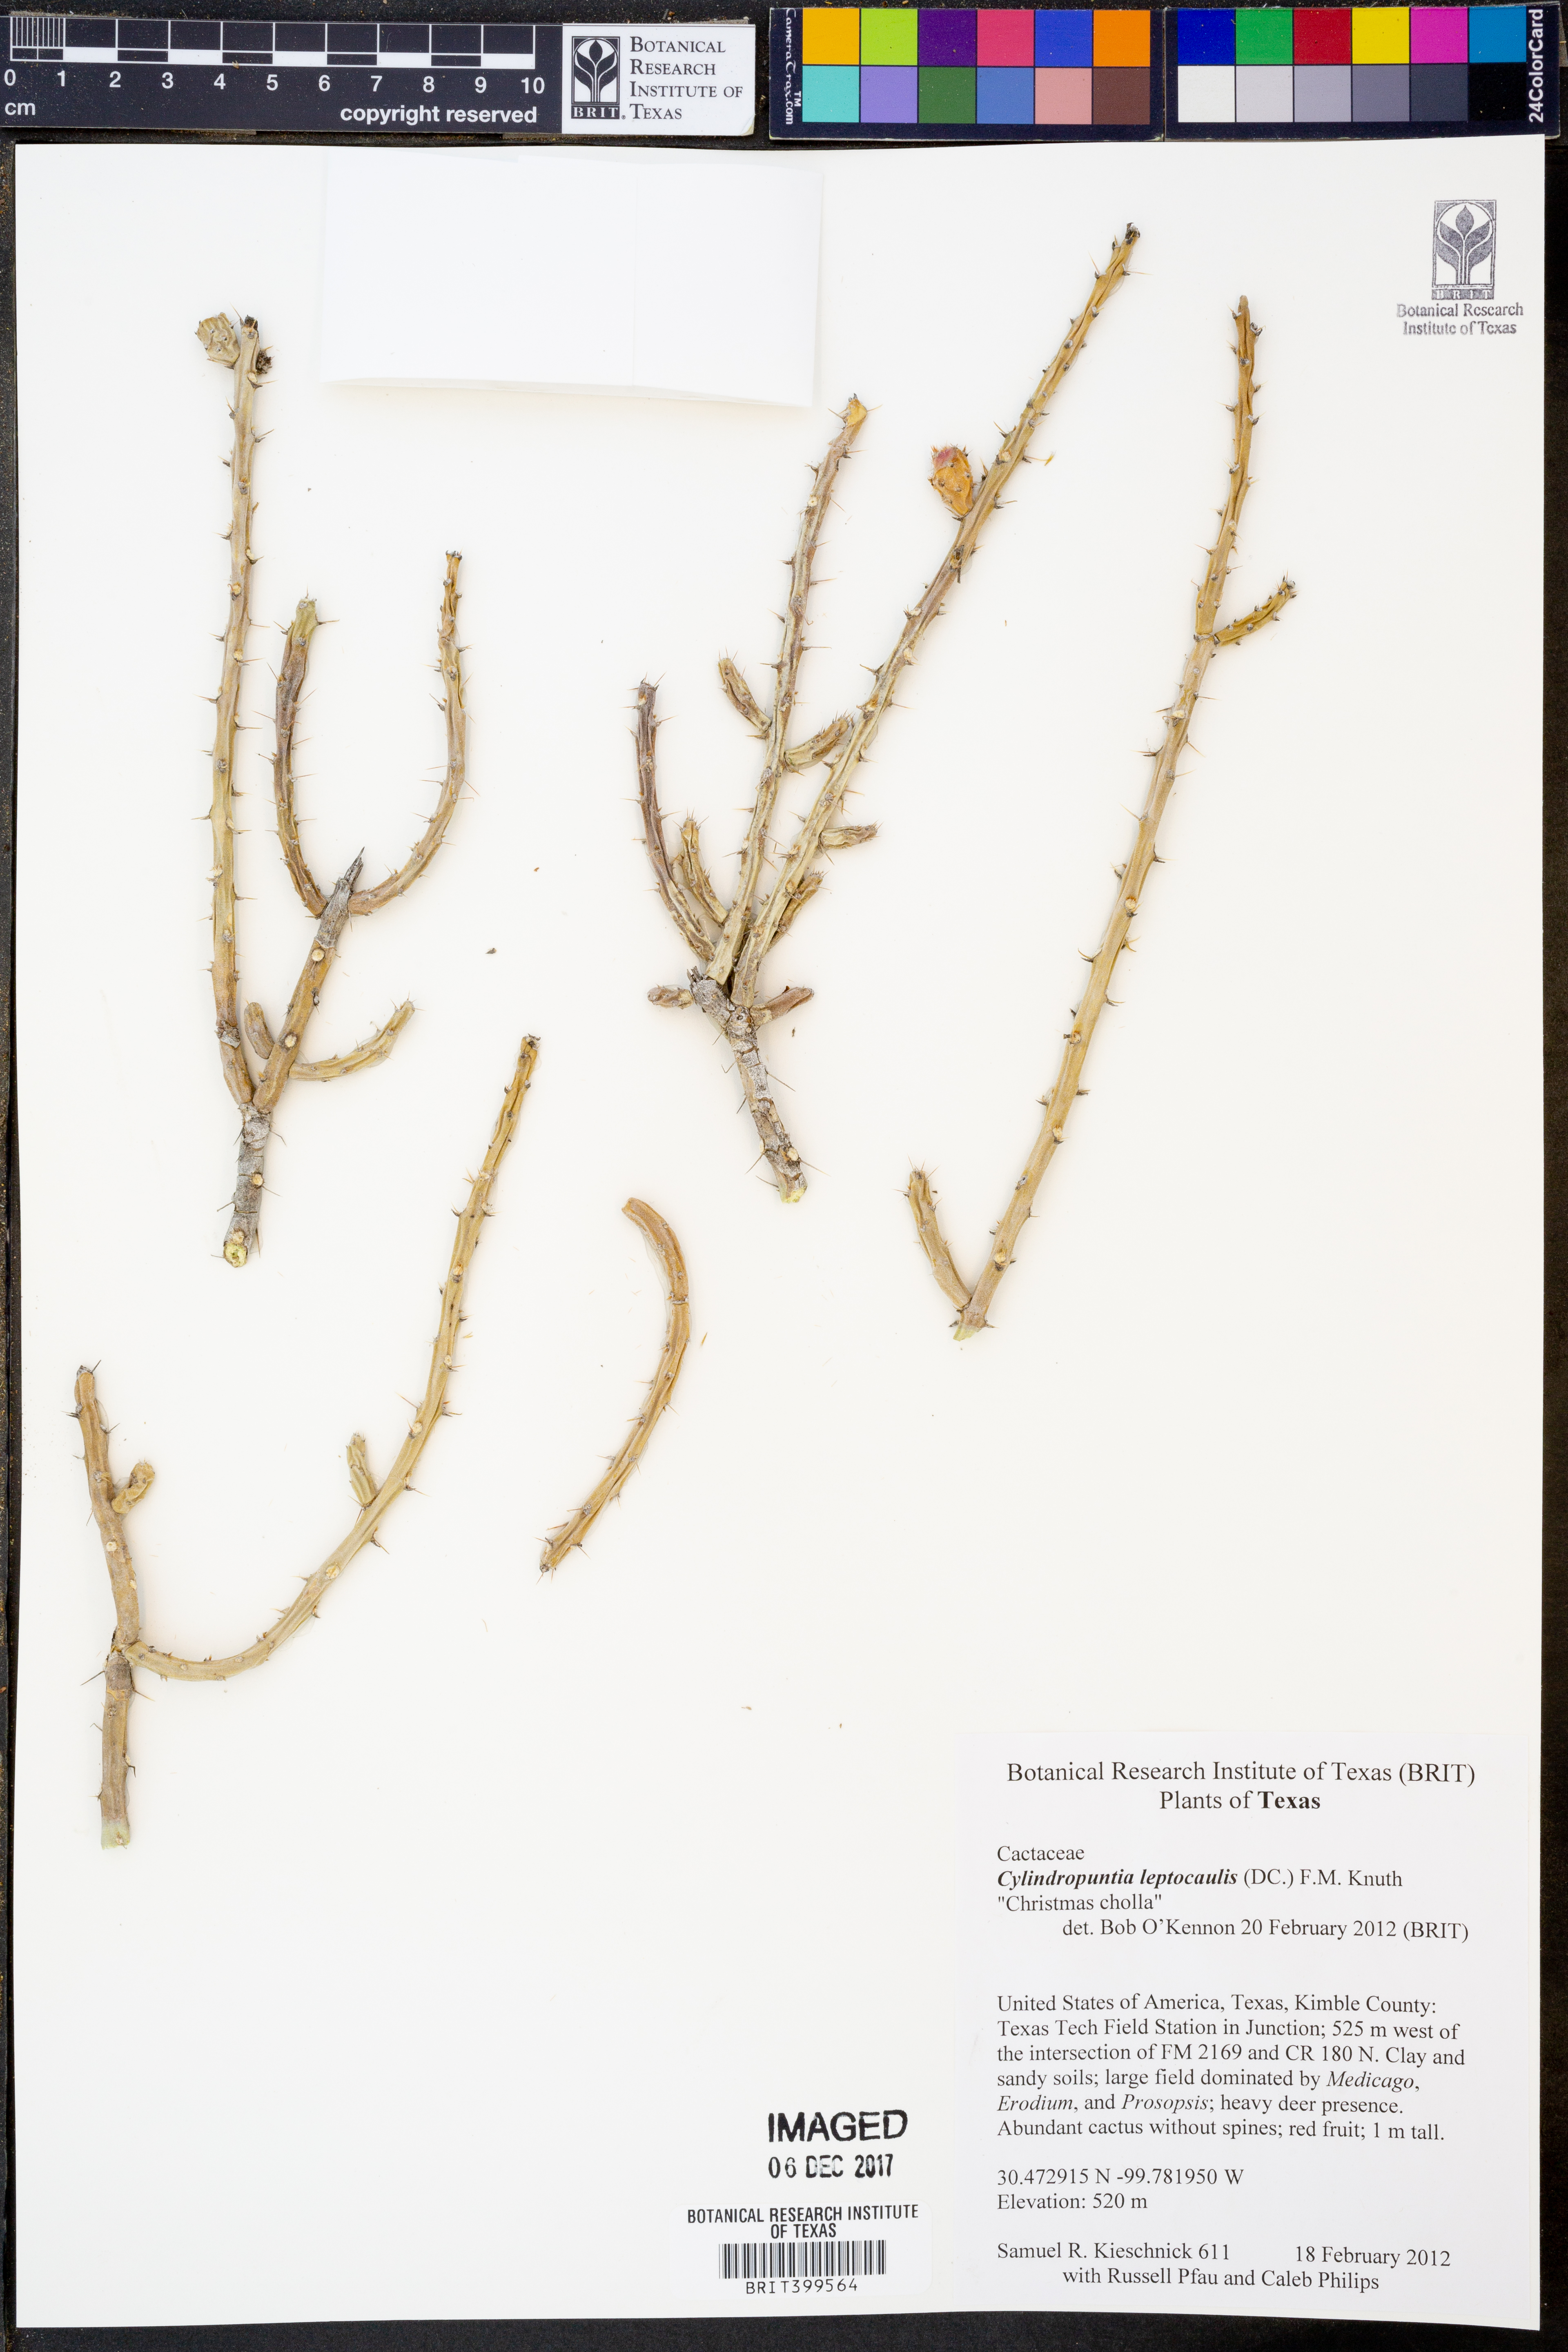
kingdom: Plantae
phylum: Tracheophyta
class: Magnoliopsida
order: Caryophyllales
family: Cactaceae
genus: Cylindropuntia
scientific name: Cylindropuntia leptocaulis
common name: Christmas cactus
